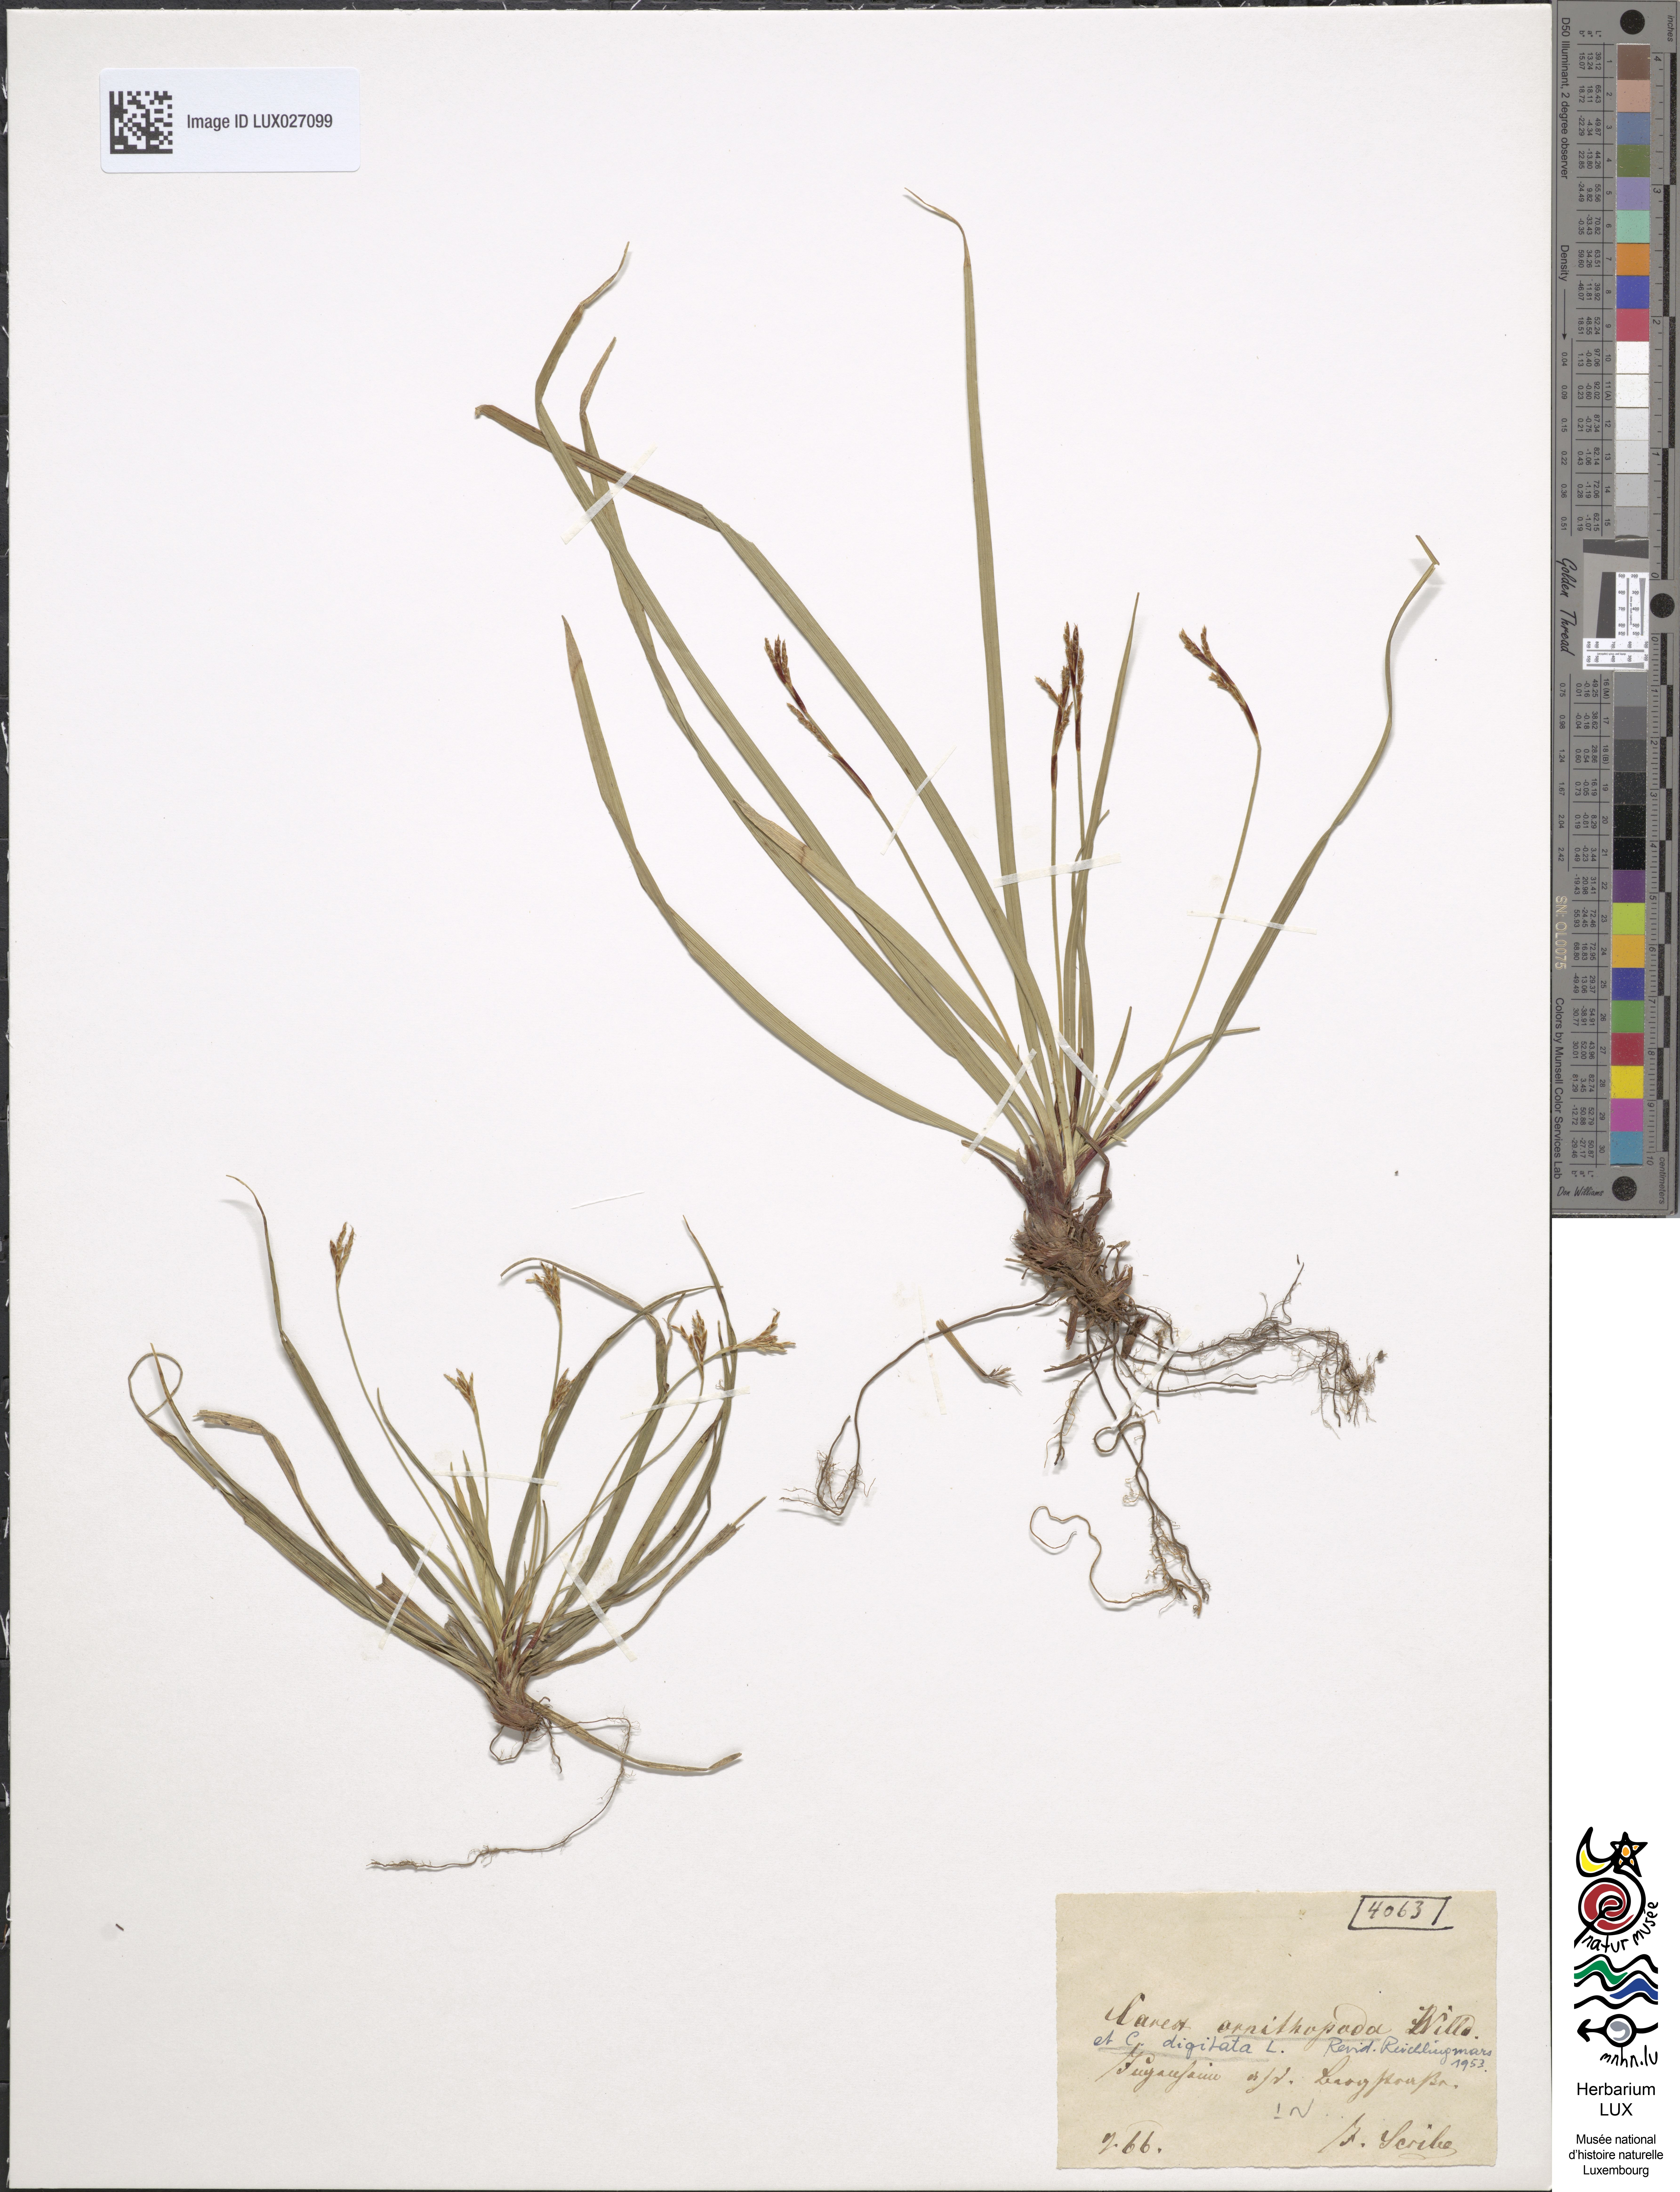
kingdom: Plantae
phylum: Tracheophyta
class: Liliopsida
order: Poales
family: Cyperaceae
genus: Carex
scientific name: Carex ornithopoda
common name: Bird's-foot sedge
